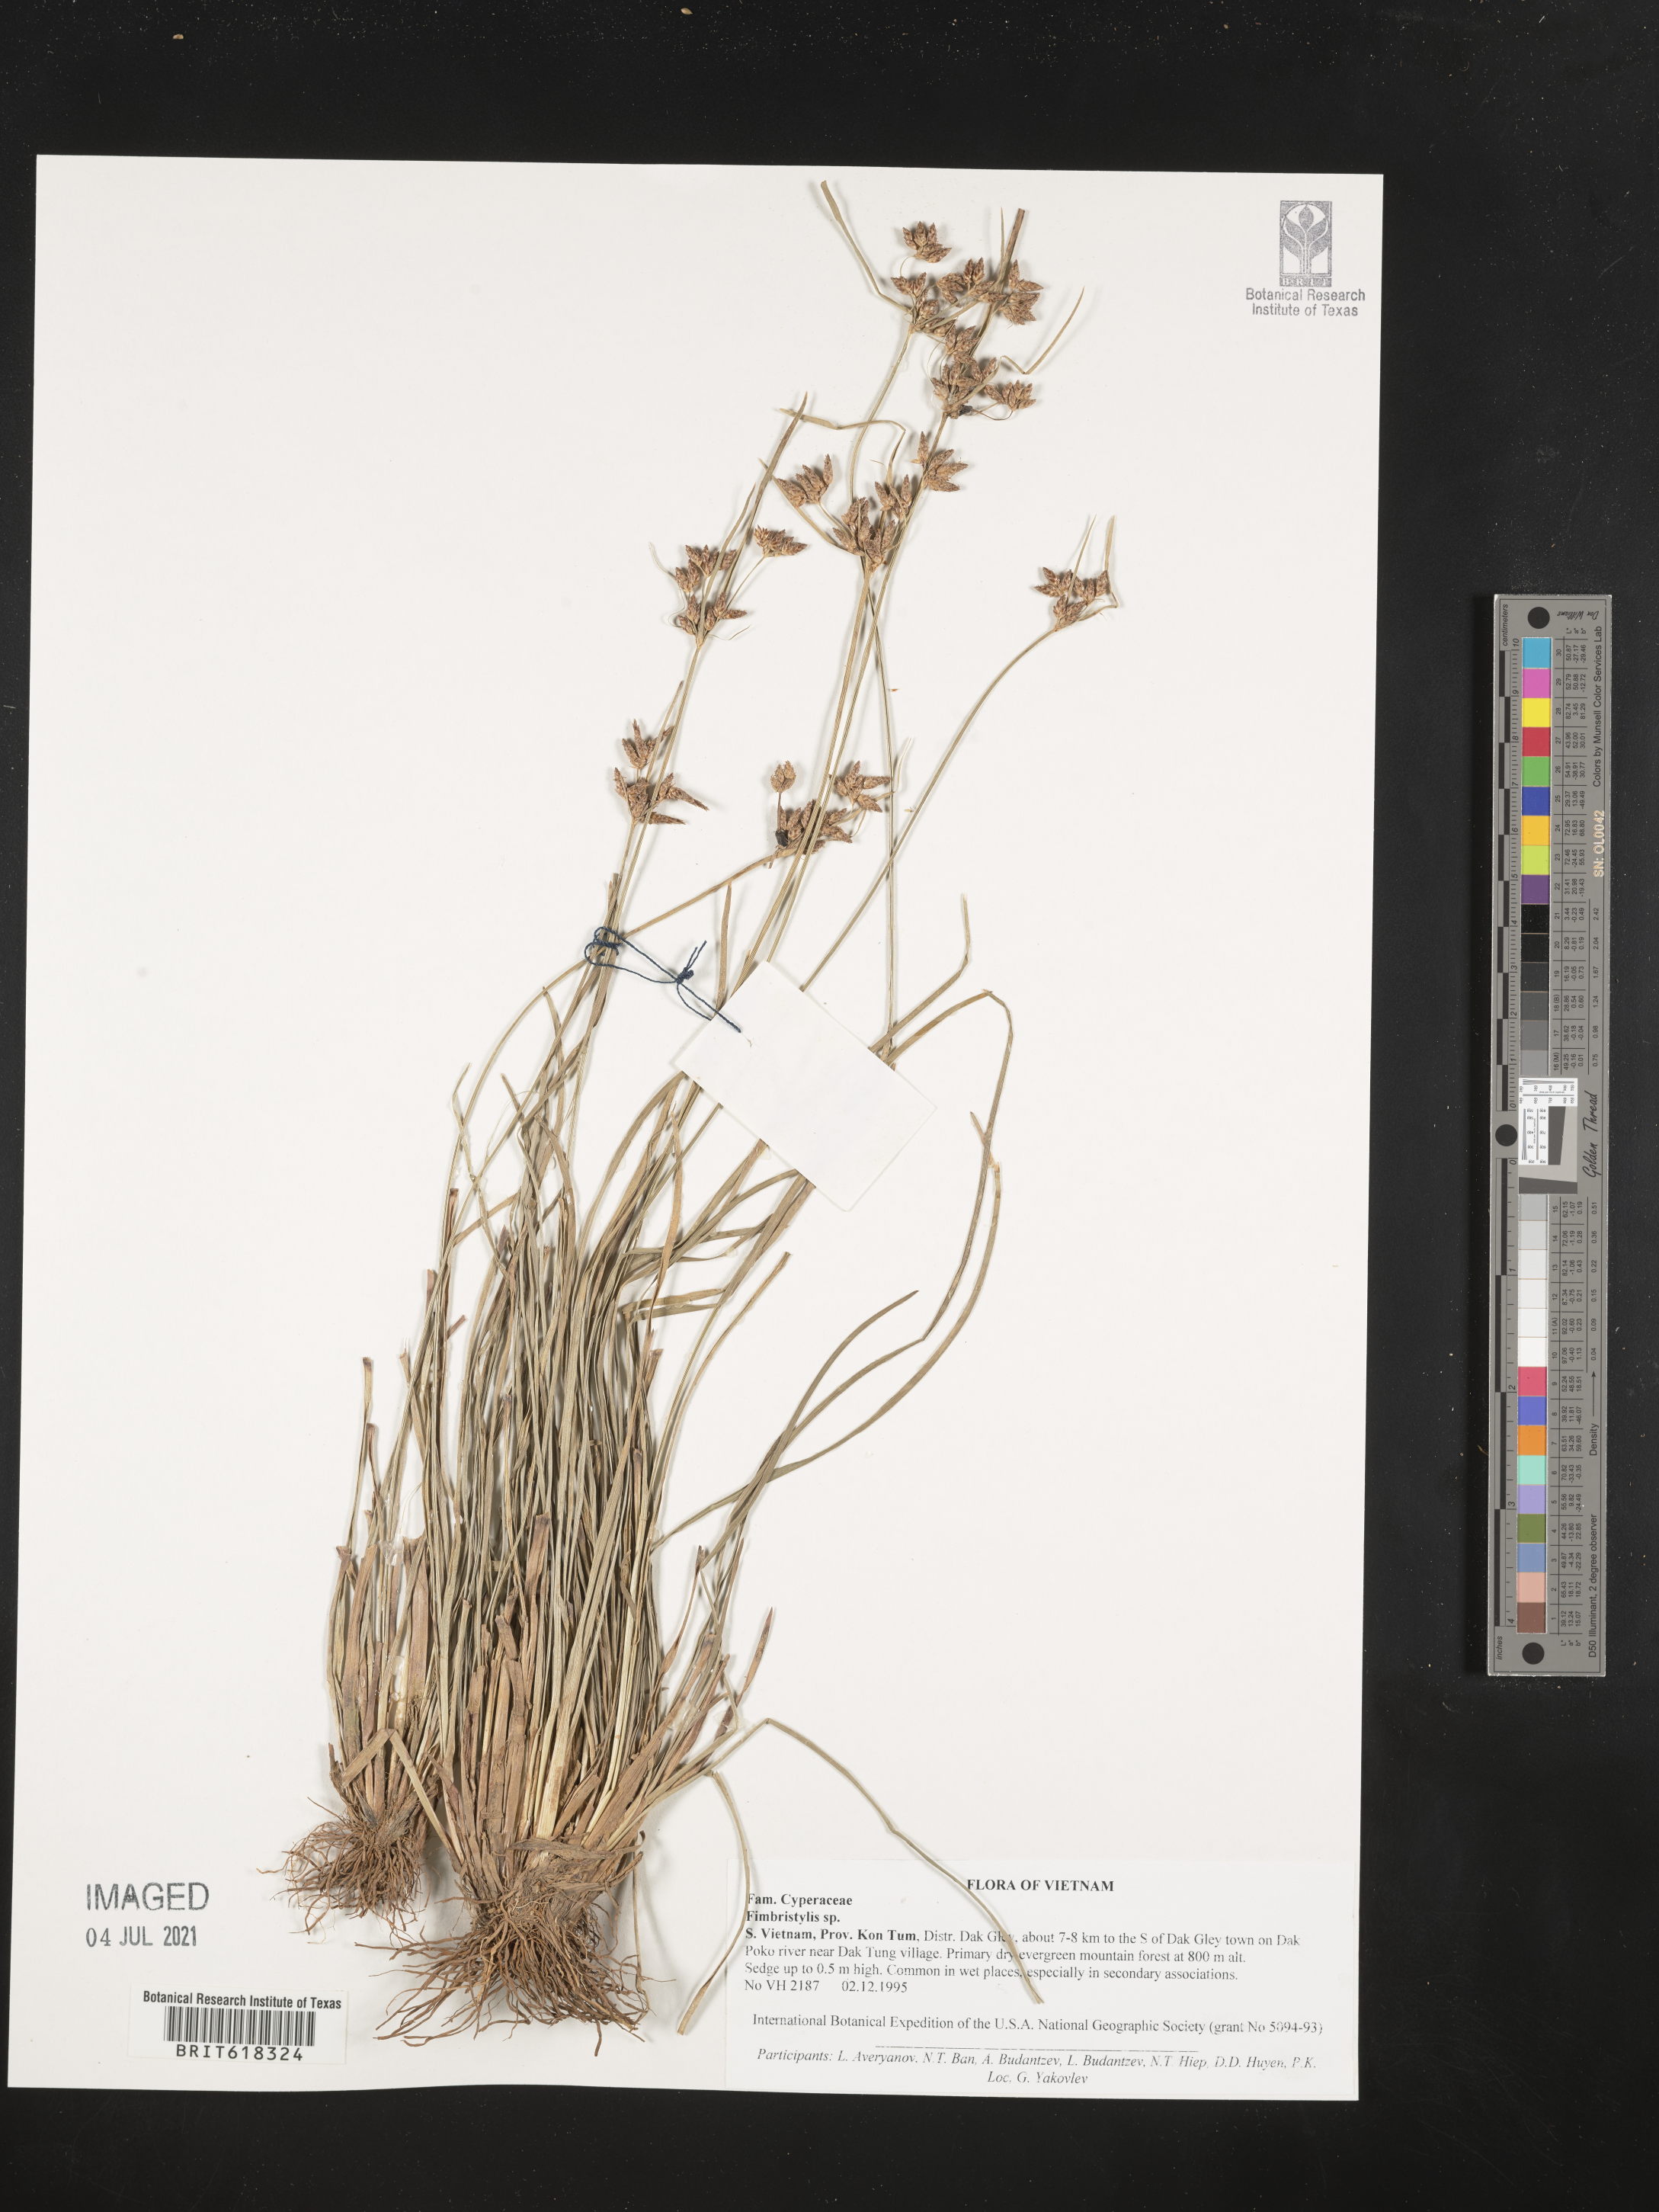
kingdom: Plantae
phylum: Tracheophyta
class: Liliopsida
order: Poales
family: Cyperaceae
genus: Fimbristylis
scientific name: Fimbristylis
